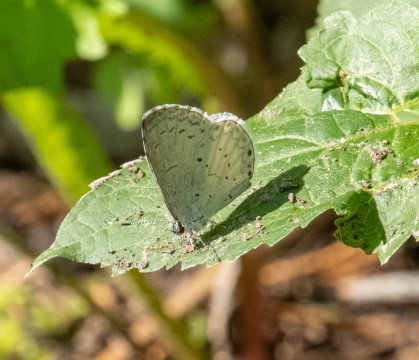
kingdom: Animalia
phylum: Arthropoda
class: Insecta
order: Lepidoptera
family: Lycaenidae
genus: Cyaniris
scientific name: Cyaniris neglecta
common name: Summer Azure
